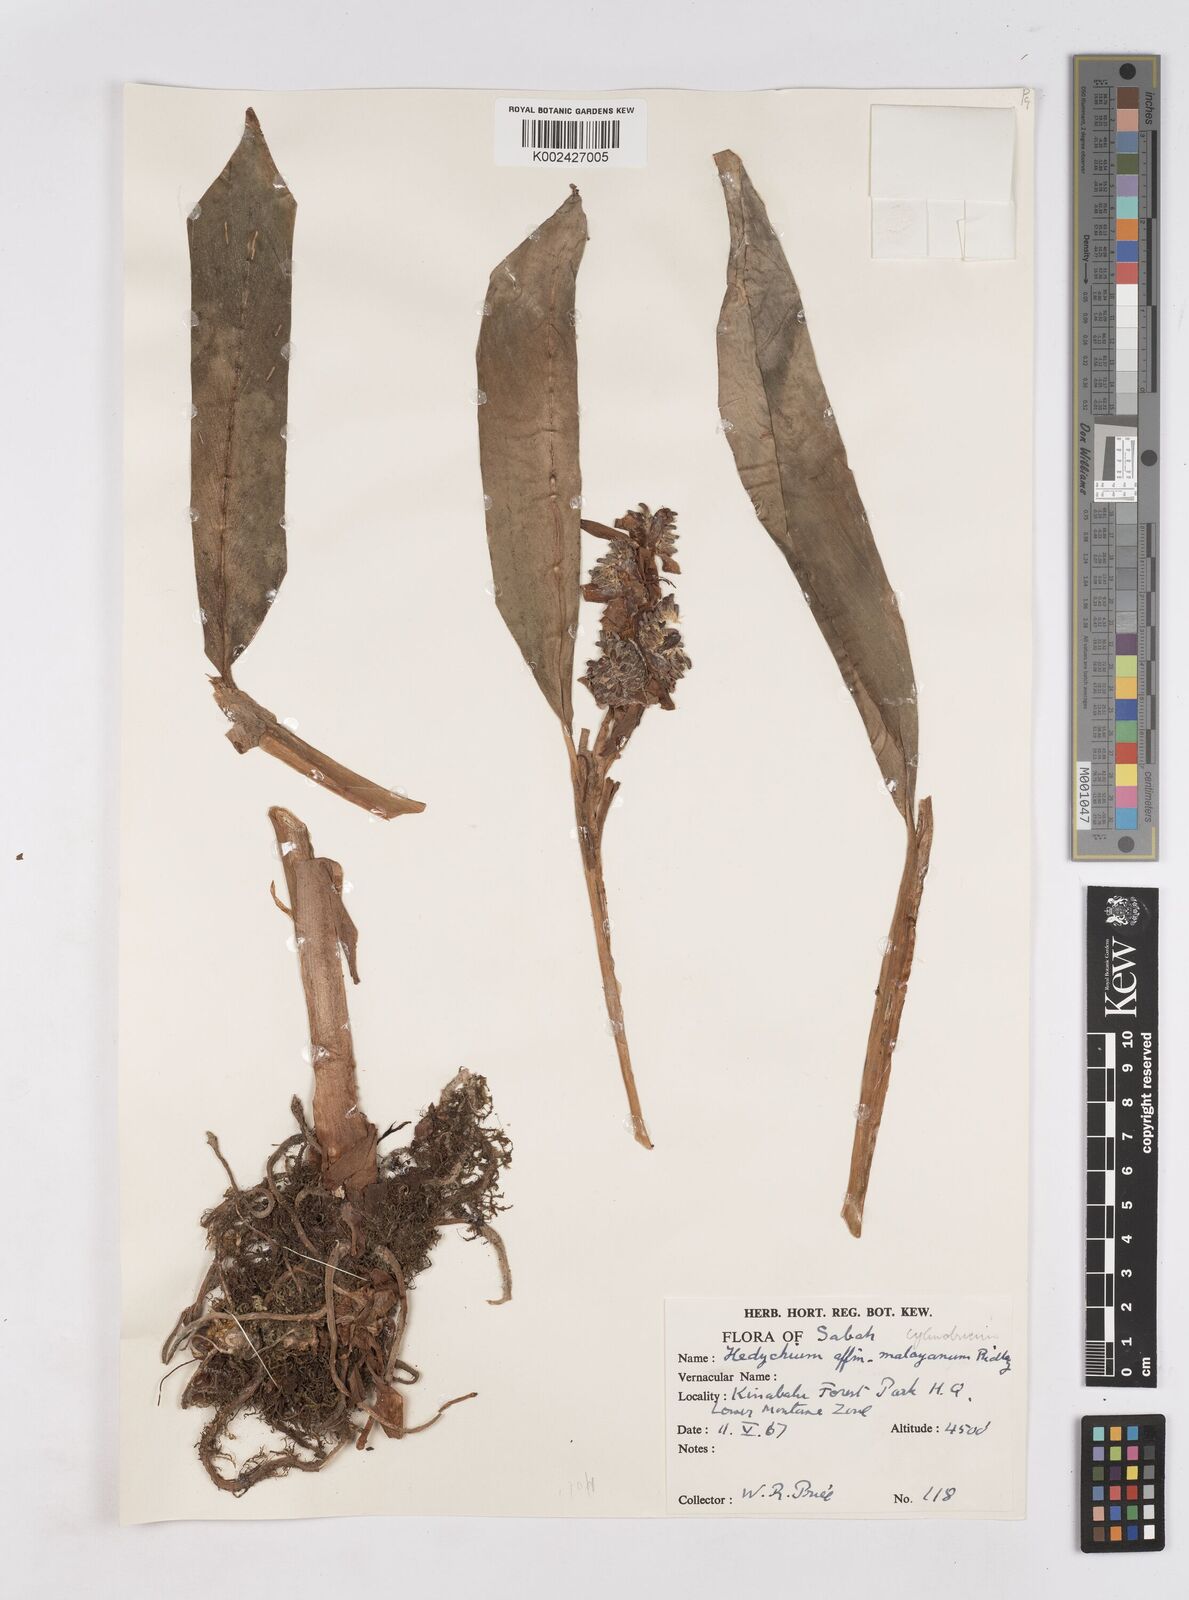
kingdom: Plantae
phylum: Tracheophyta
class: Liliopsida
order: Zingiberales
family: Zingiberaceae
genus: Hedychium
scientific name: Hedychium cylindricum
